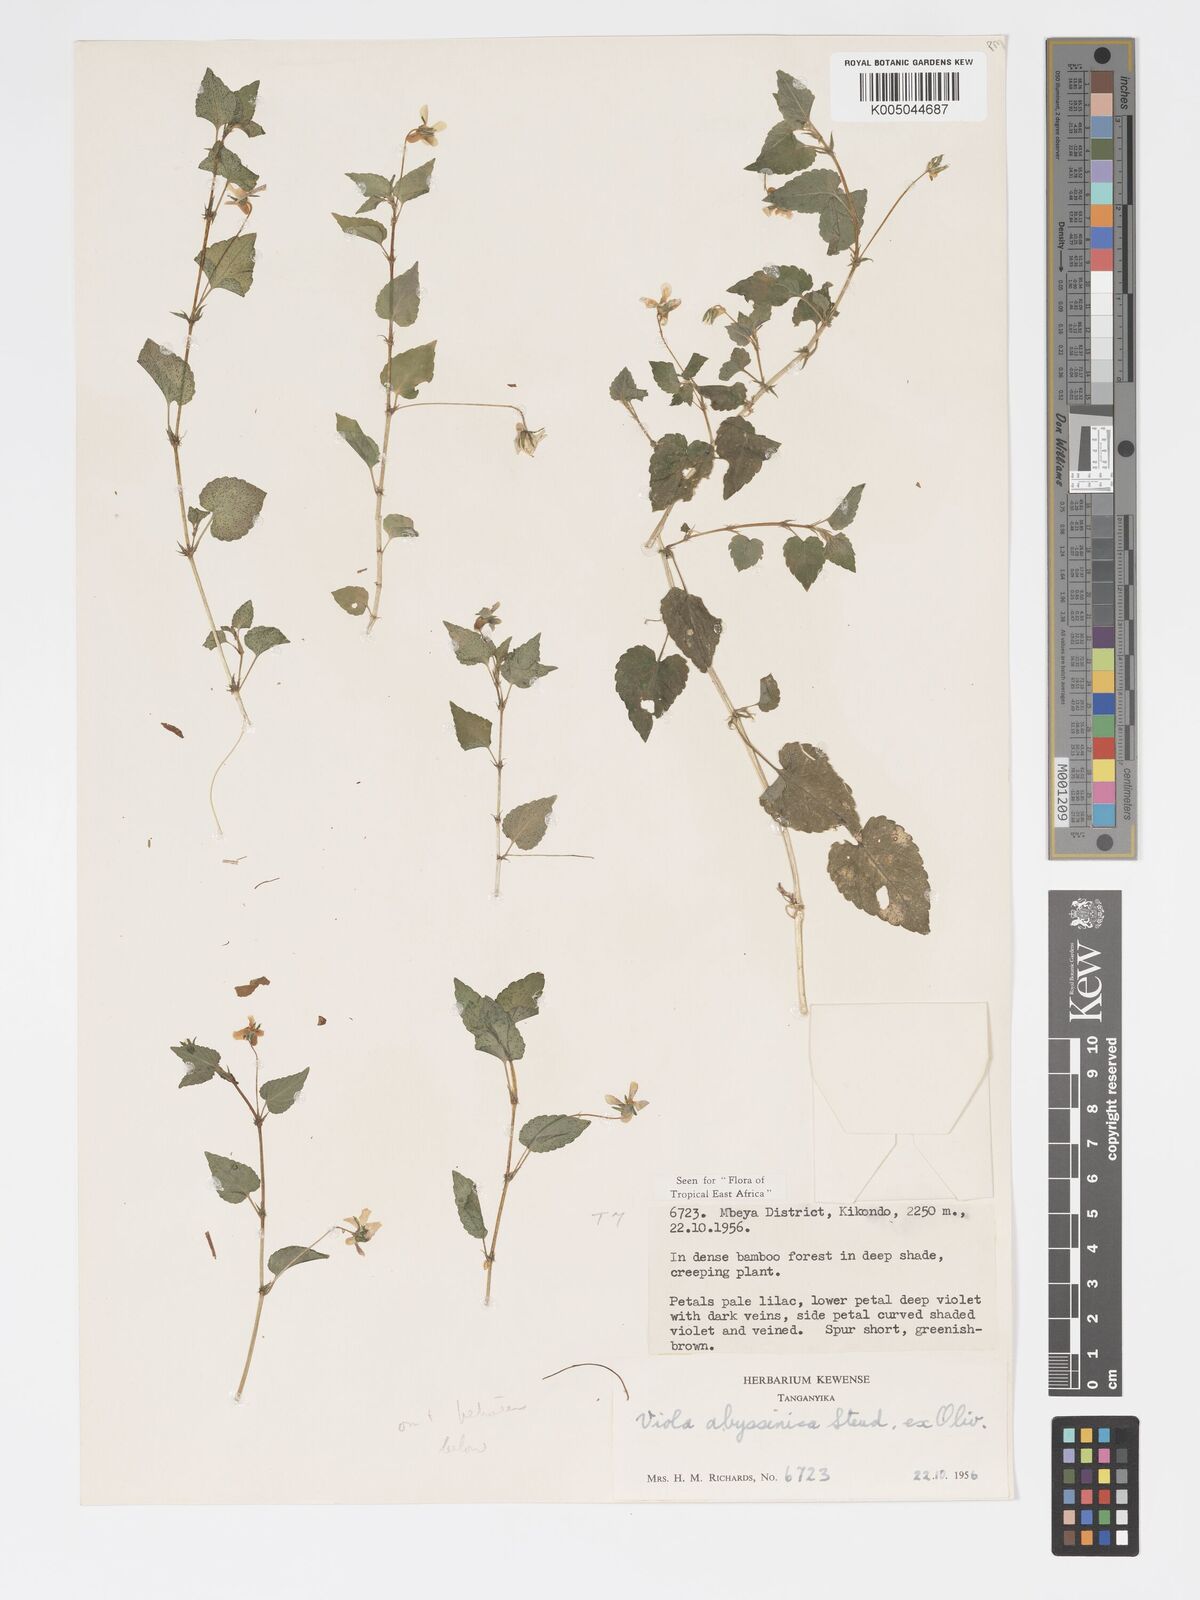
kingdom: Plantae
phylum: Tracheophyta
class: Magnoliopsida
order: Malpighiales
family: Violaceae
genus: Viola
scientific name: Viola abyssinica
